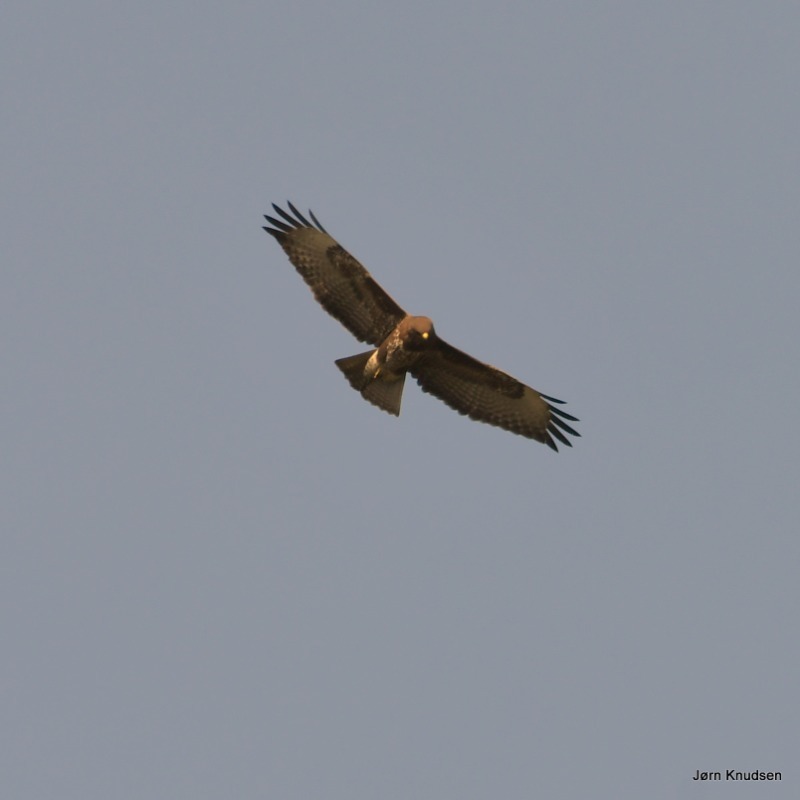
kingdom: Animalia
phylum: Chordata
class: Aves
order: Accipitriformes
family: Accipitridae
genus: Buteo
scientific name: Buteo buteo
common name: Musvåge
